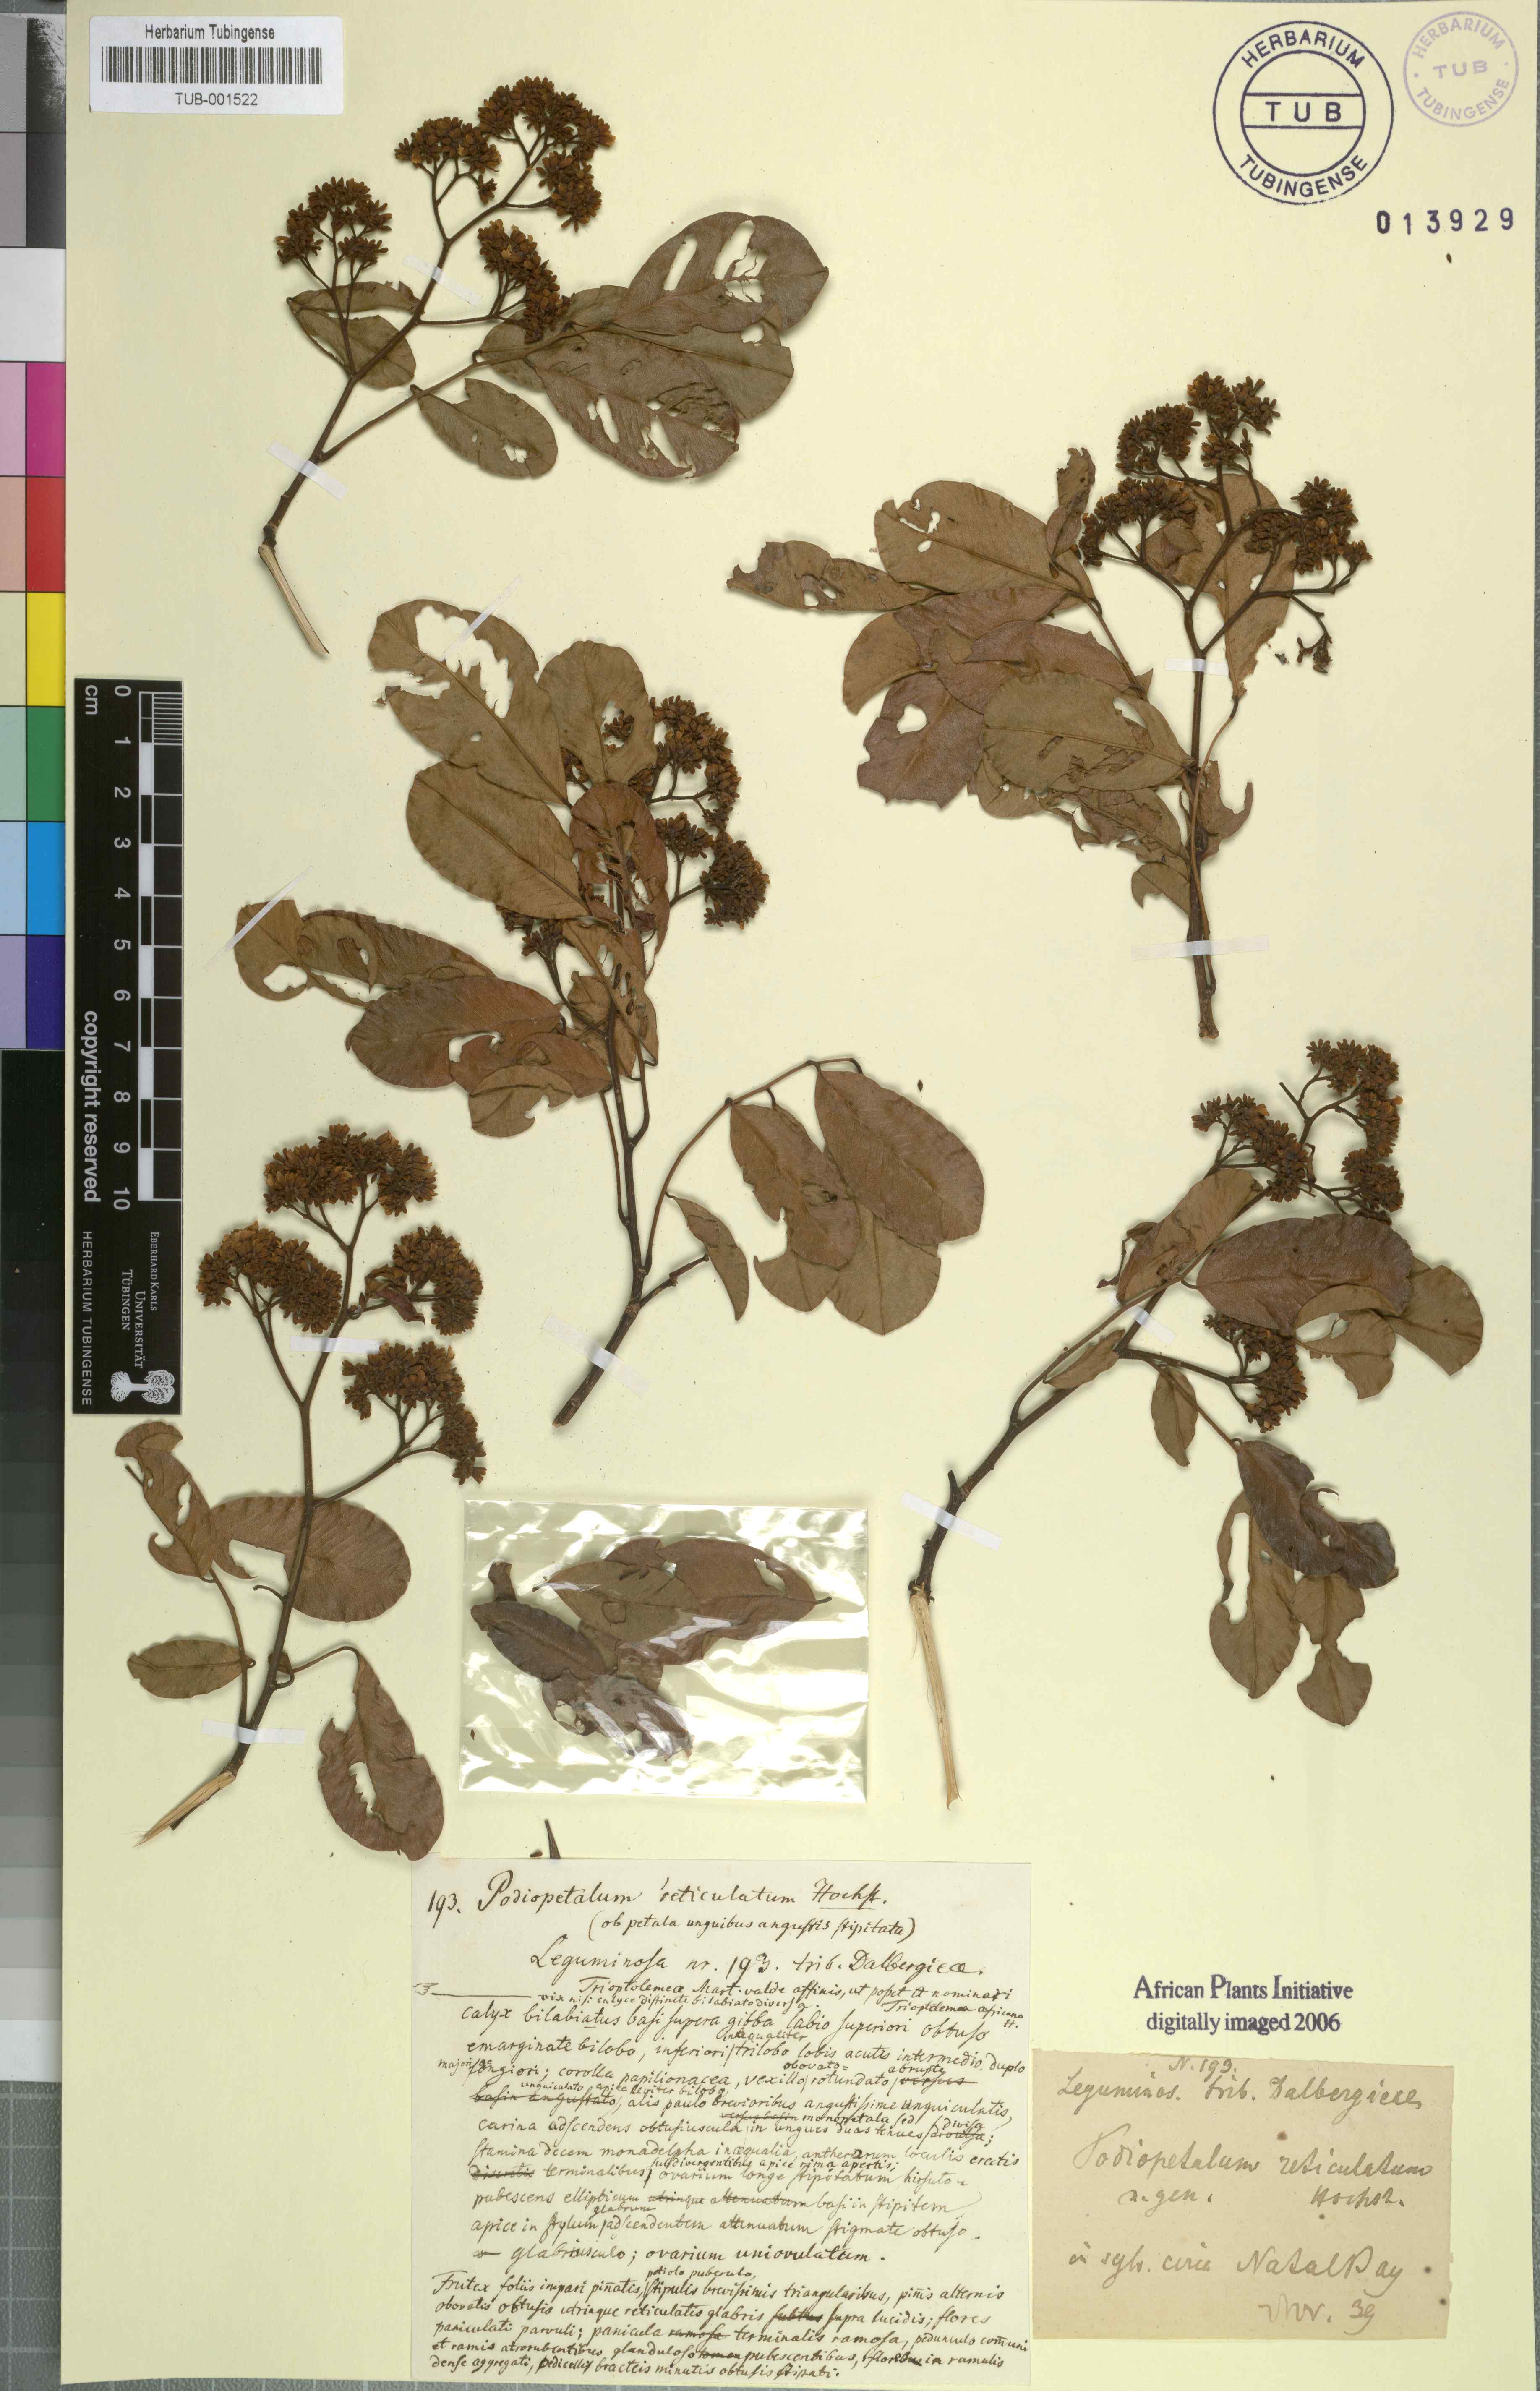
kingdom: Plantae
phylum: Tracheophyta
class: Magnoliopsida
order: Fabales
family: Fabaceae
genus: Dalbergia
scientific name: Dalbergia obovata
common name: Climbing flat-bean
